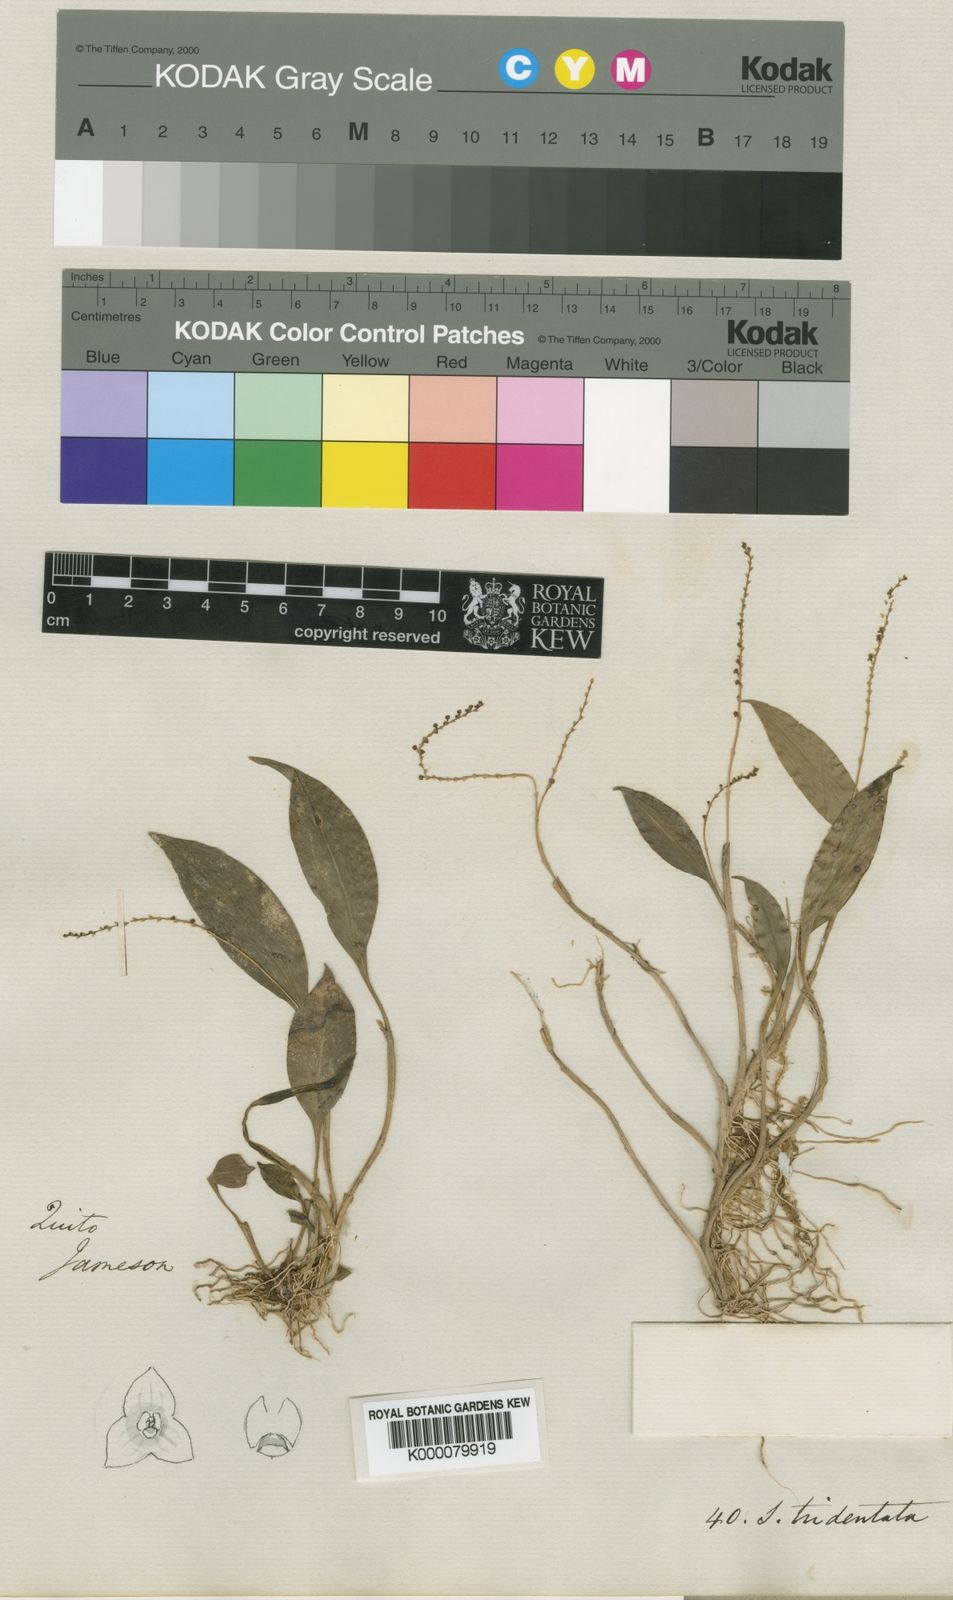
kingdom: Plantae
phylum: Tracheophyta
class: Liliopsida
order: Asparagales
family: Orchidaceae
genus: Stelis
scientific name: Stelis tridentata
